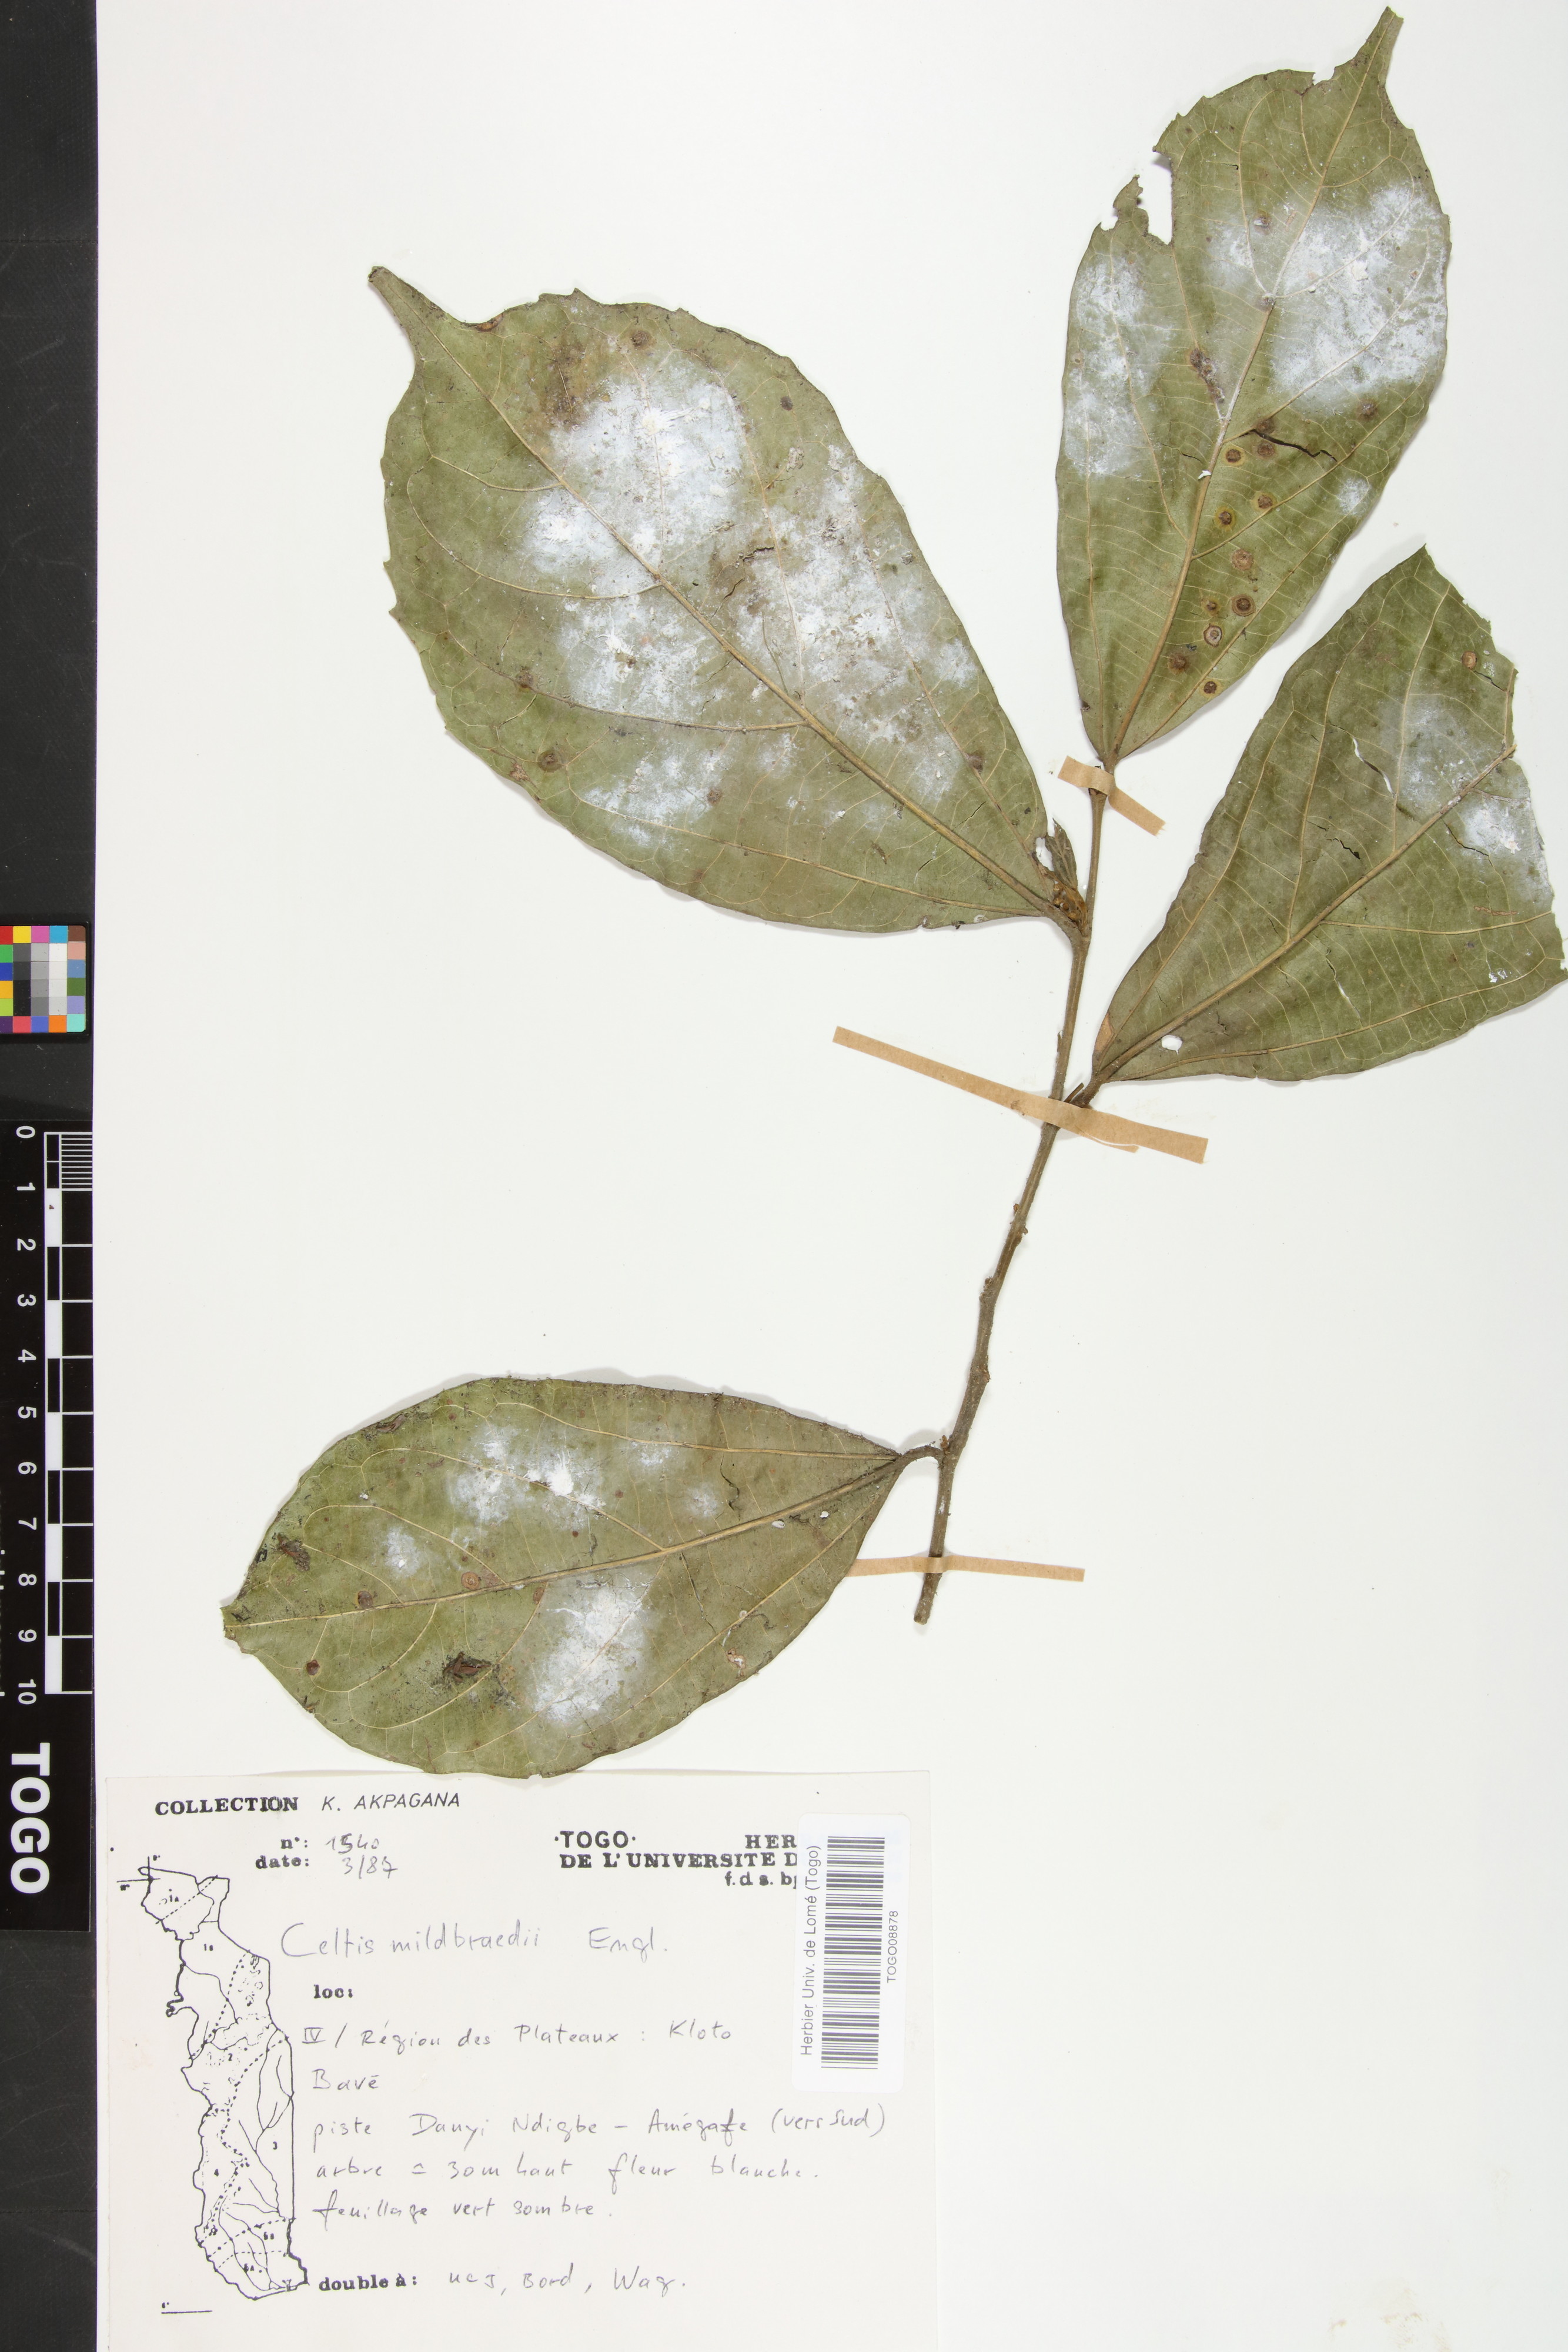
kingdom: Plantae
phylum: Tracheophyta
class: Magnoliopsida
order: Rosales
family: Cannabaceae
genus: Celtis
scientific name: Celtis mildbraedii
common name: Red-fruited stinkwood
